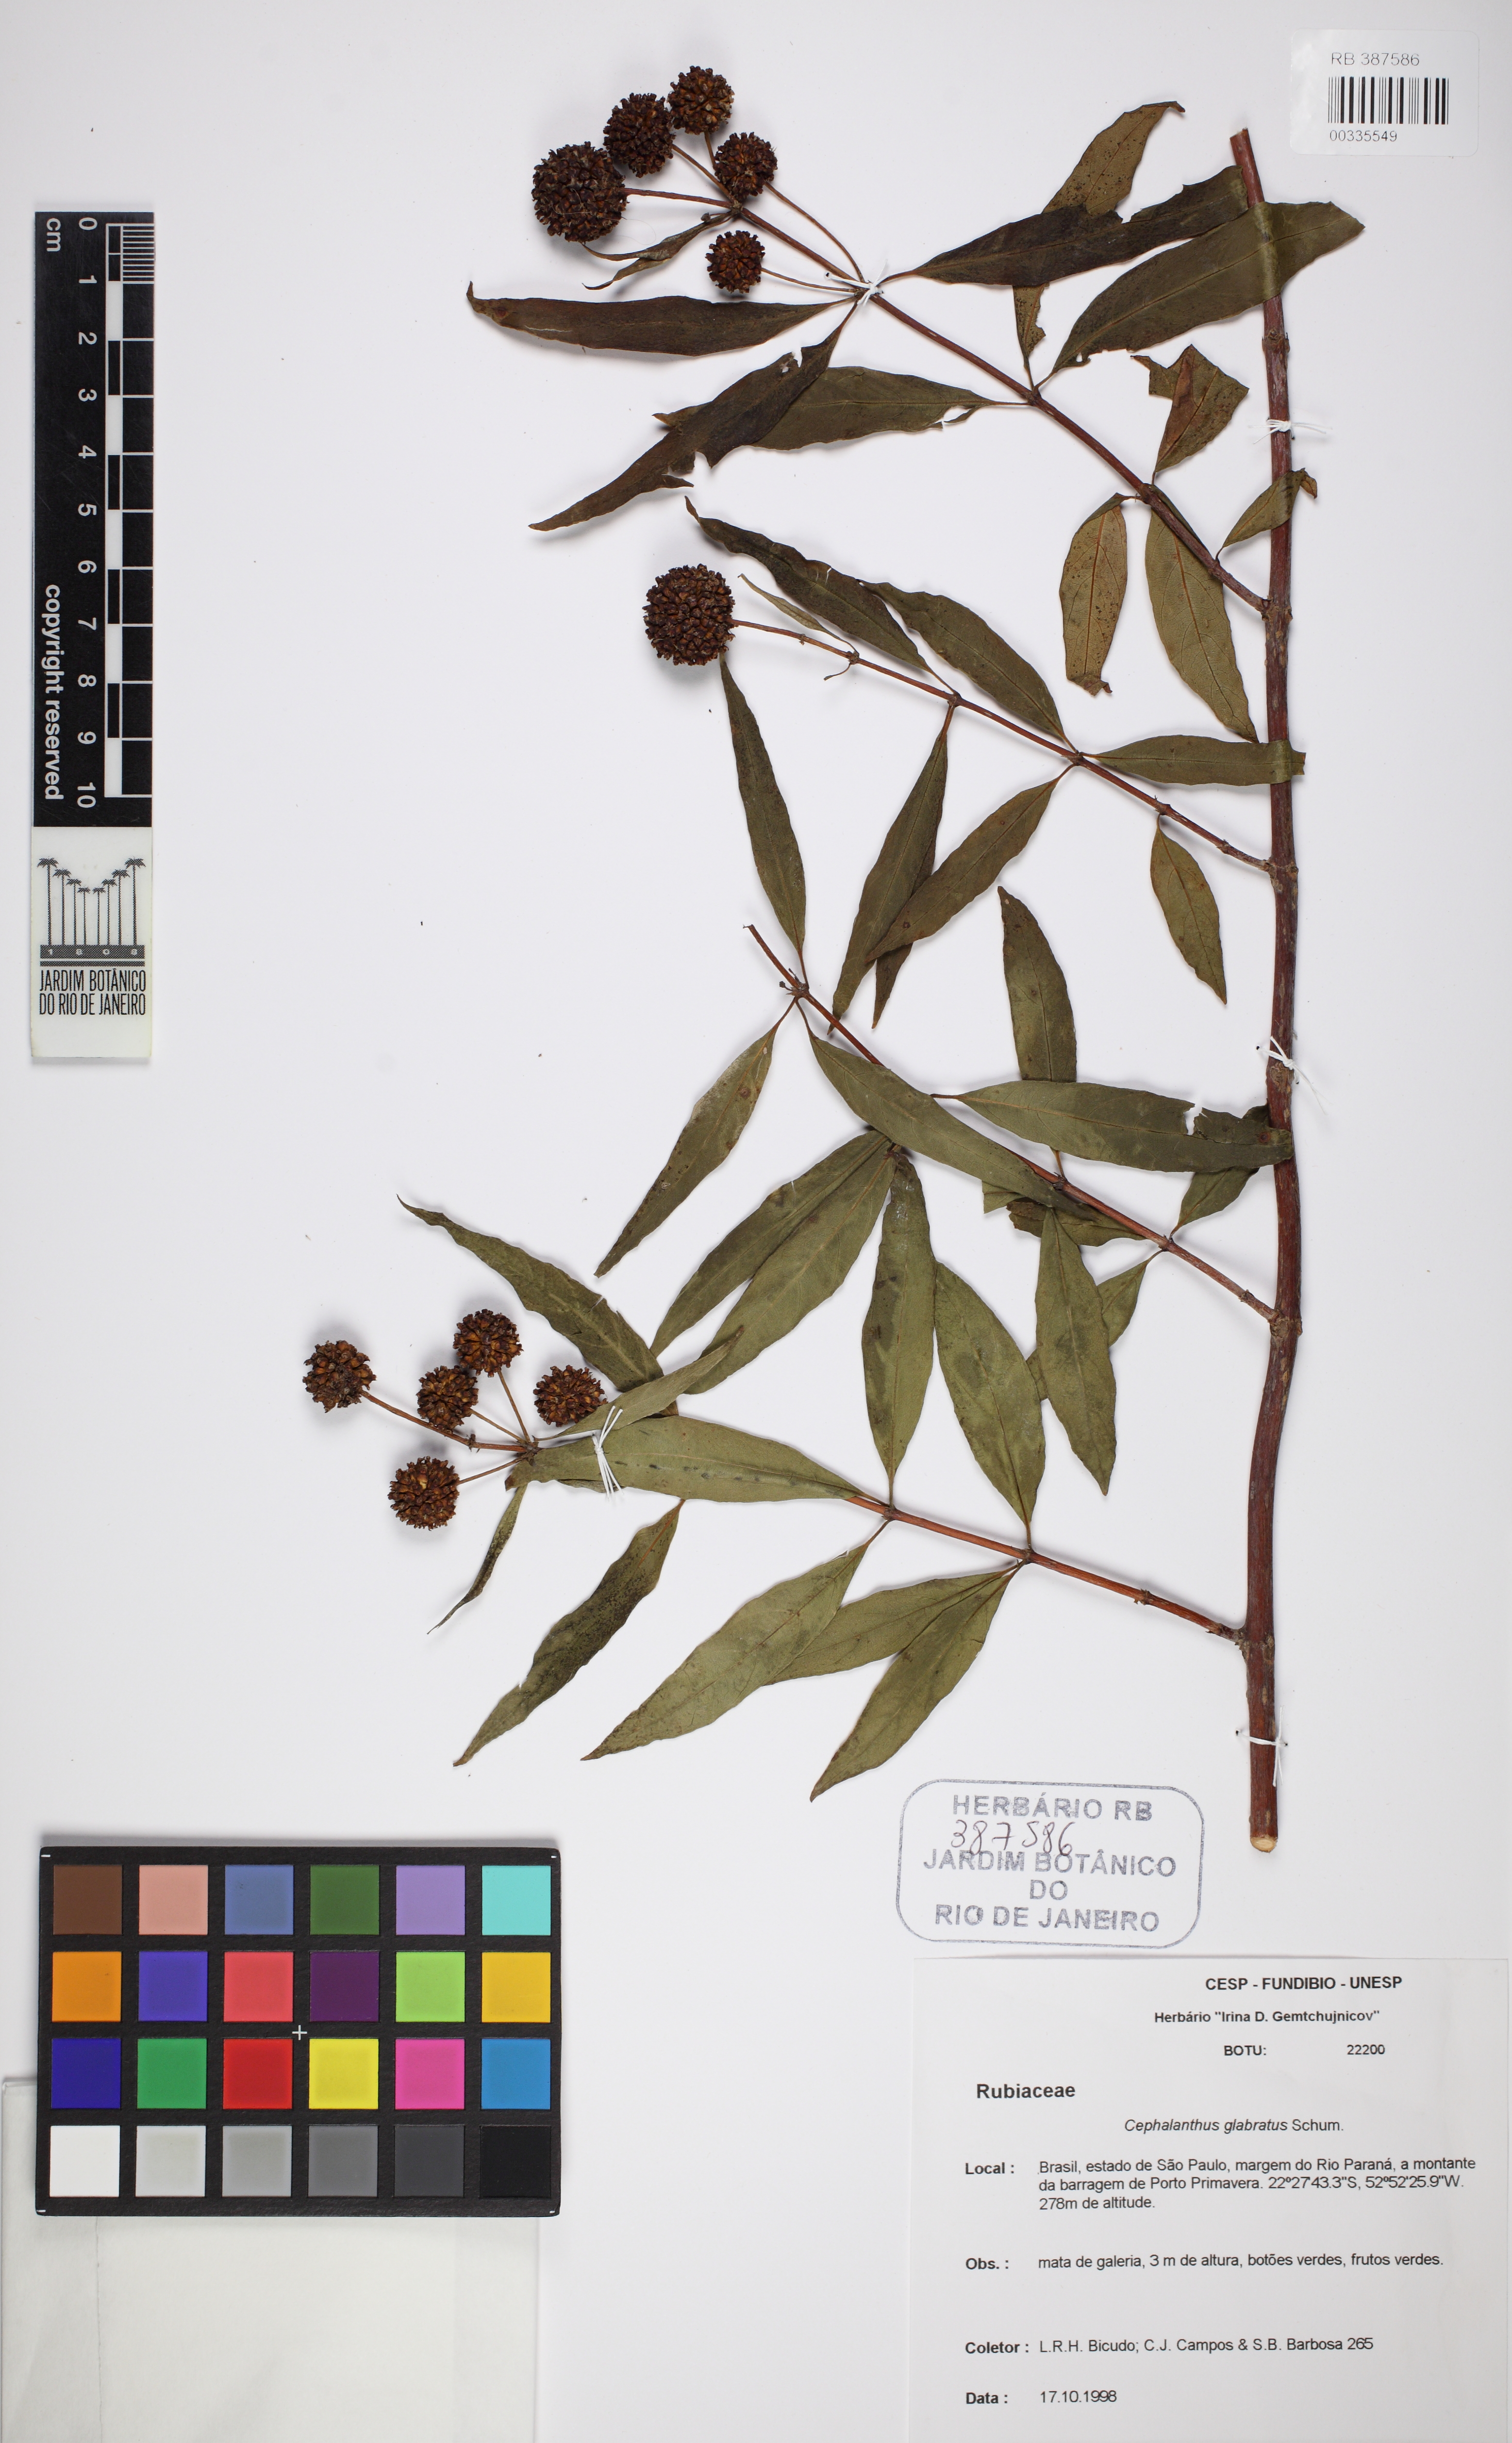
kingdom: Plantae
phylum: Tracheophyta
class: Magnoliopsida
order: Gentianales
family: Rubiaceae
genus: Cephalanthus
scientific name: Cephalanthus glabratus
